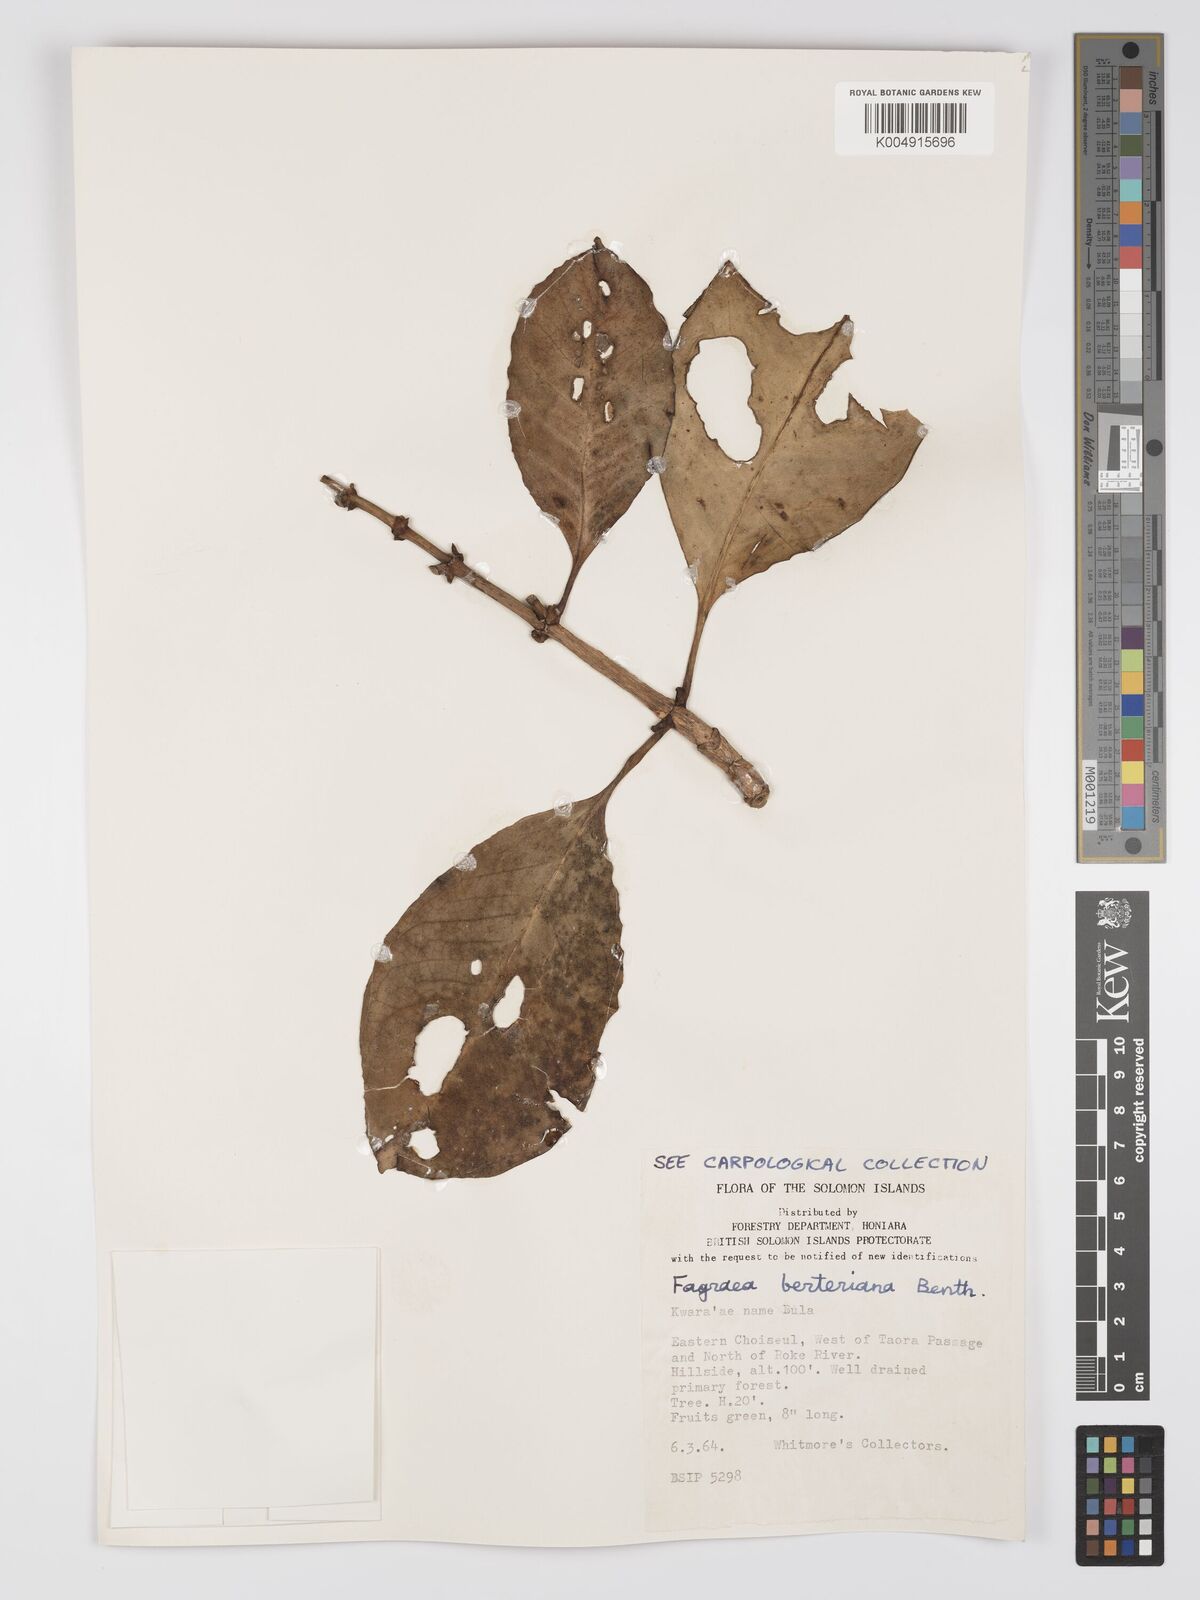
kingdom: Plantae
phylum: Tracheophyta
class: Magnoliopsida
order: Gentianales
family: Gentianaceae
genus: Fagraea
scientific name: Fagraea berteroana
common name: Cape jitta
